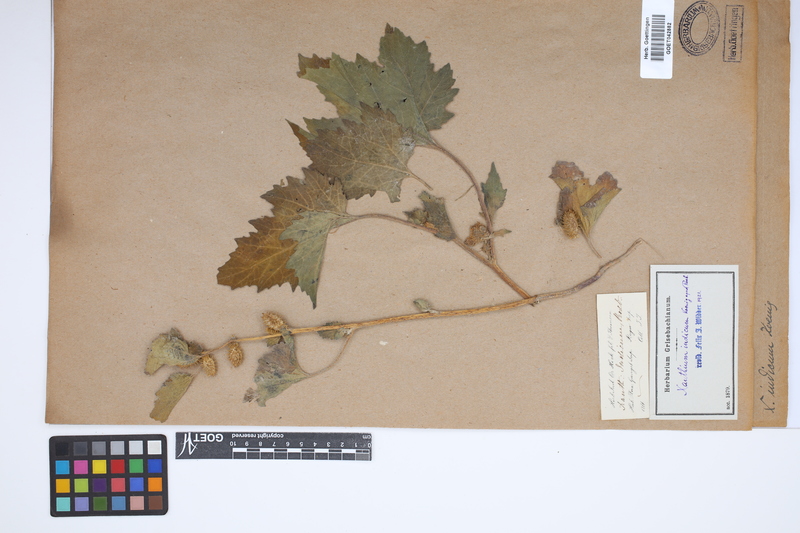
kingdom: Plantae
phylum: Tracheophyta
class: Magnoliopsida
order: Asterales
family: Asteraceae
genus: Xanthium
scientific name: Xanthium strumarium
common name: Rough cocklebur
